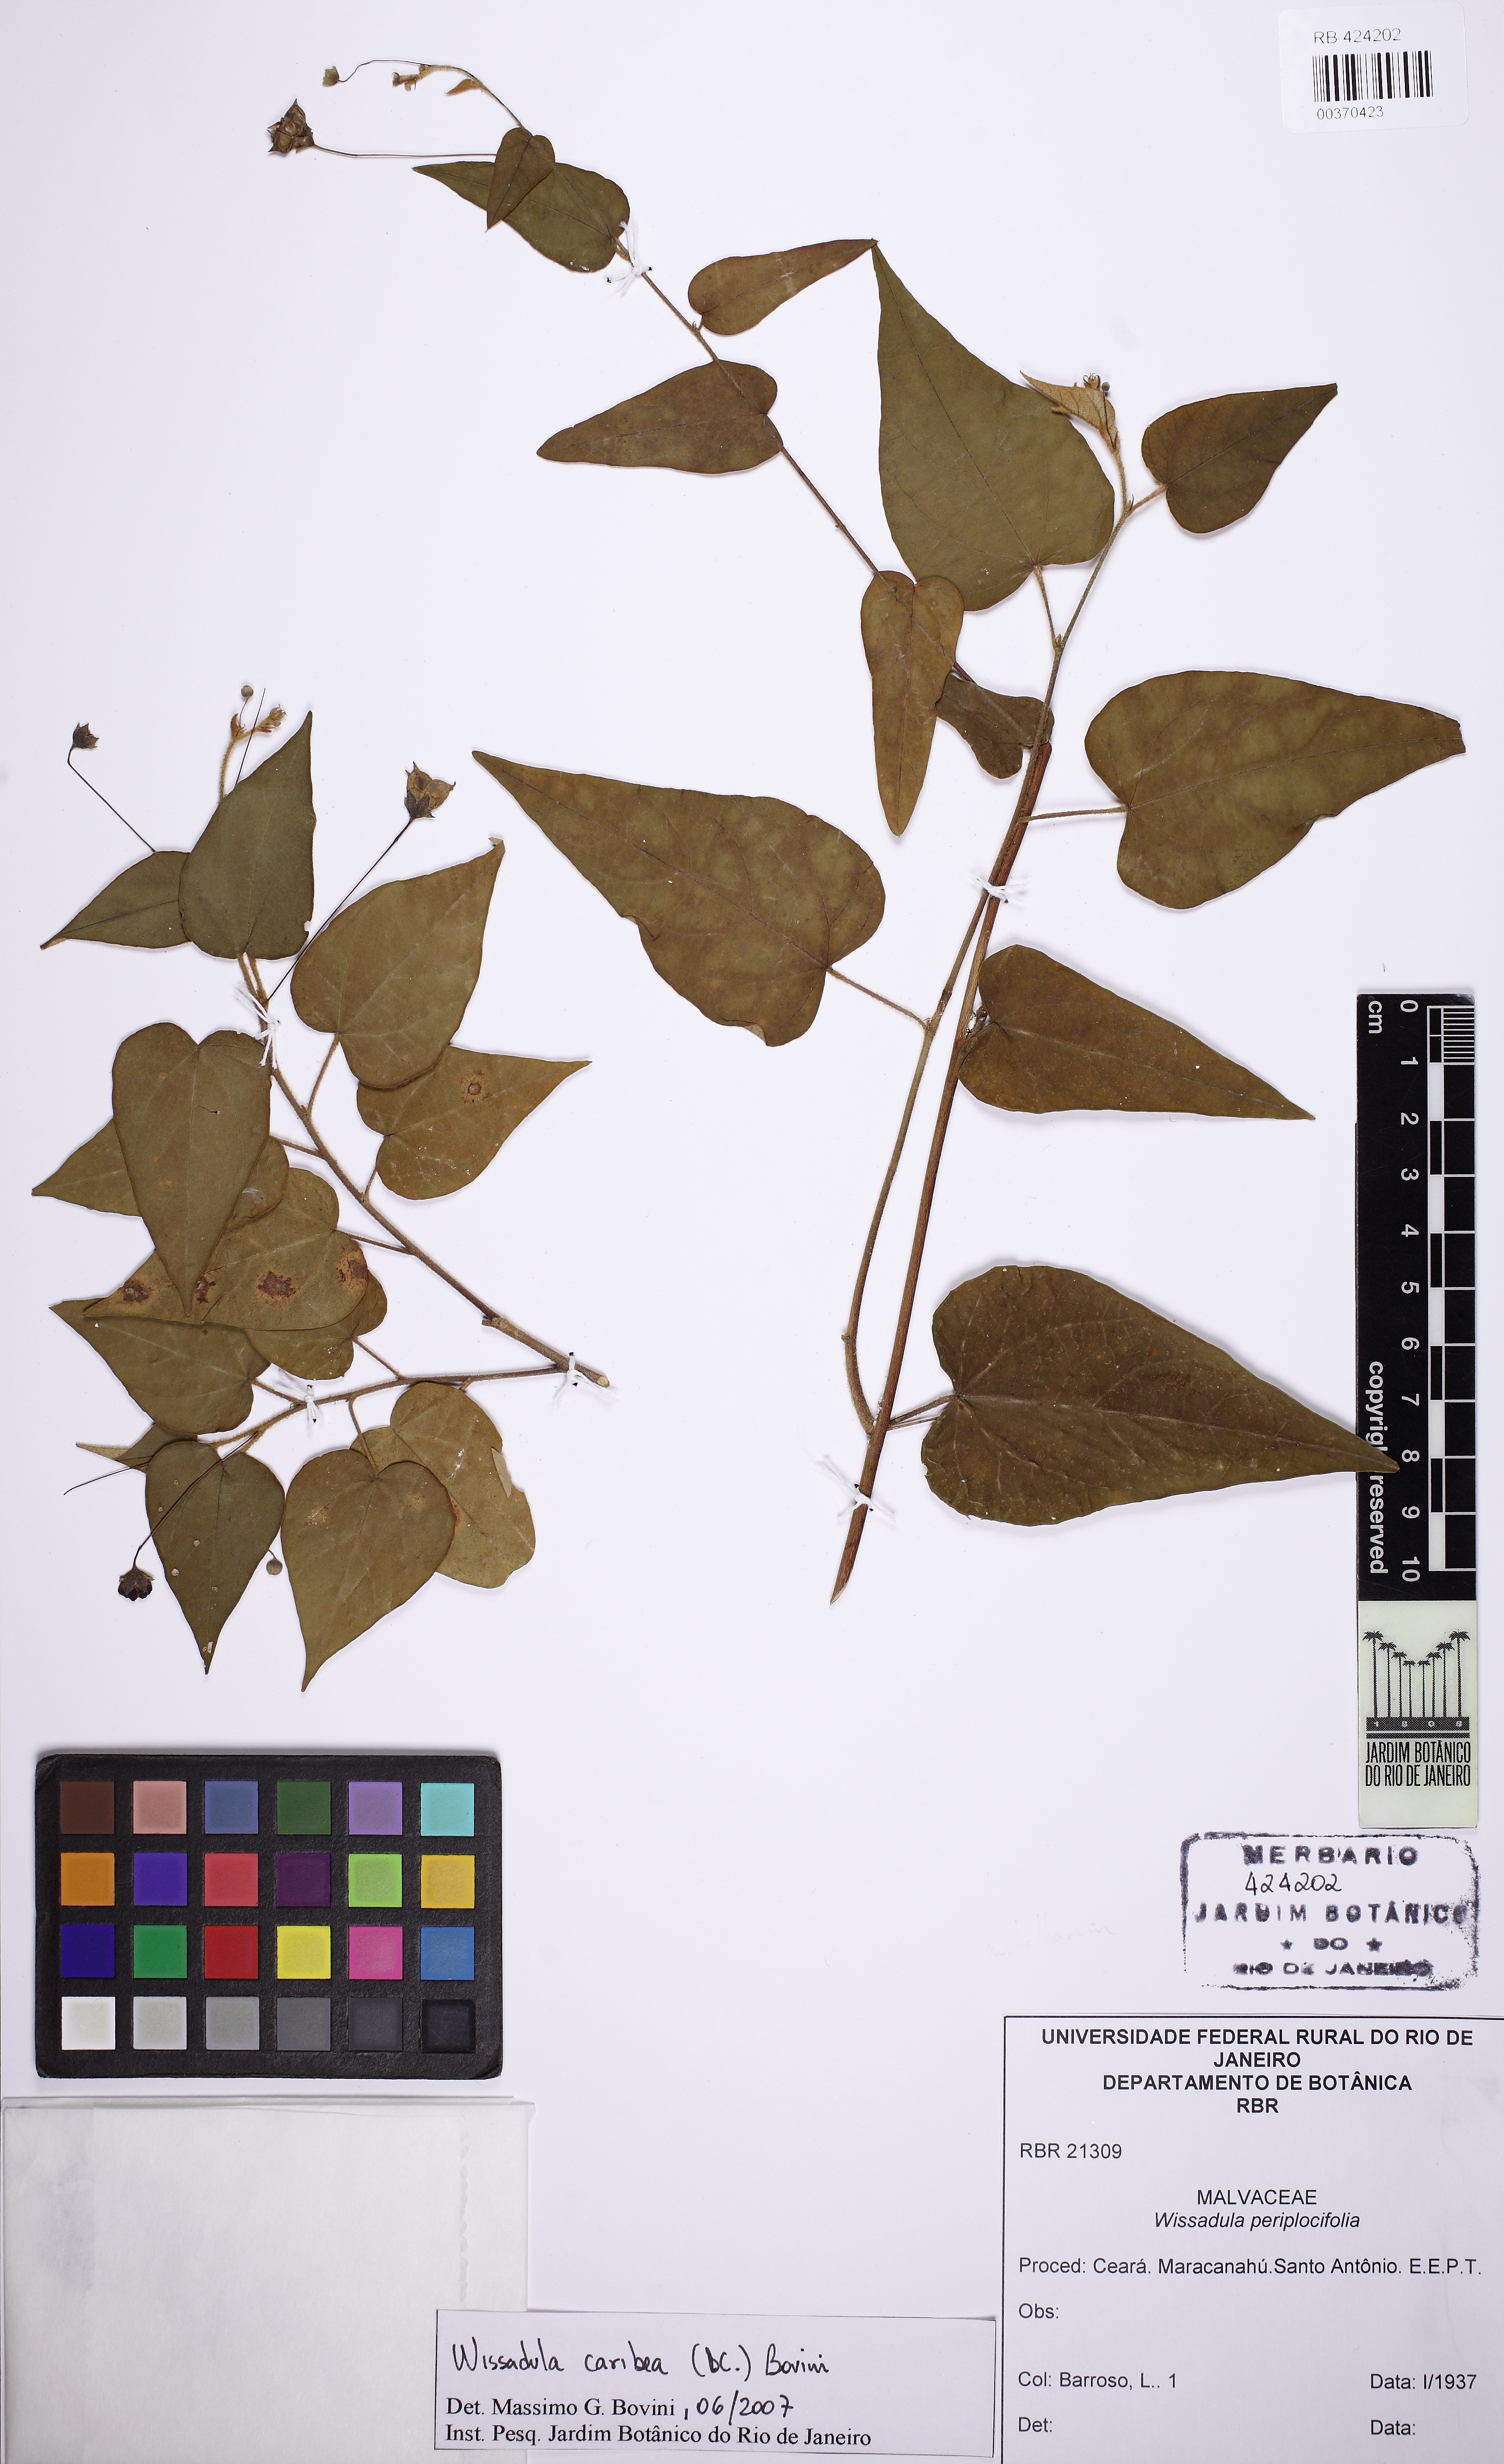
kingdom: Plantae
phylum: Tracheophyta
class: Magnoliopsida
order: Malvales
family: Malvaceae
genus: Wissadula
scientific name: Wissadula caribea
